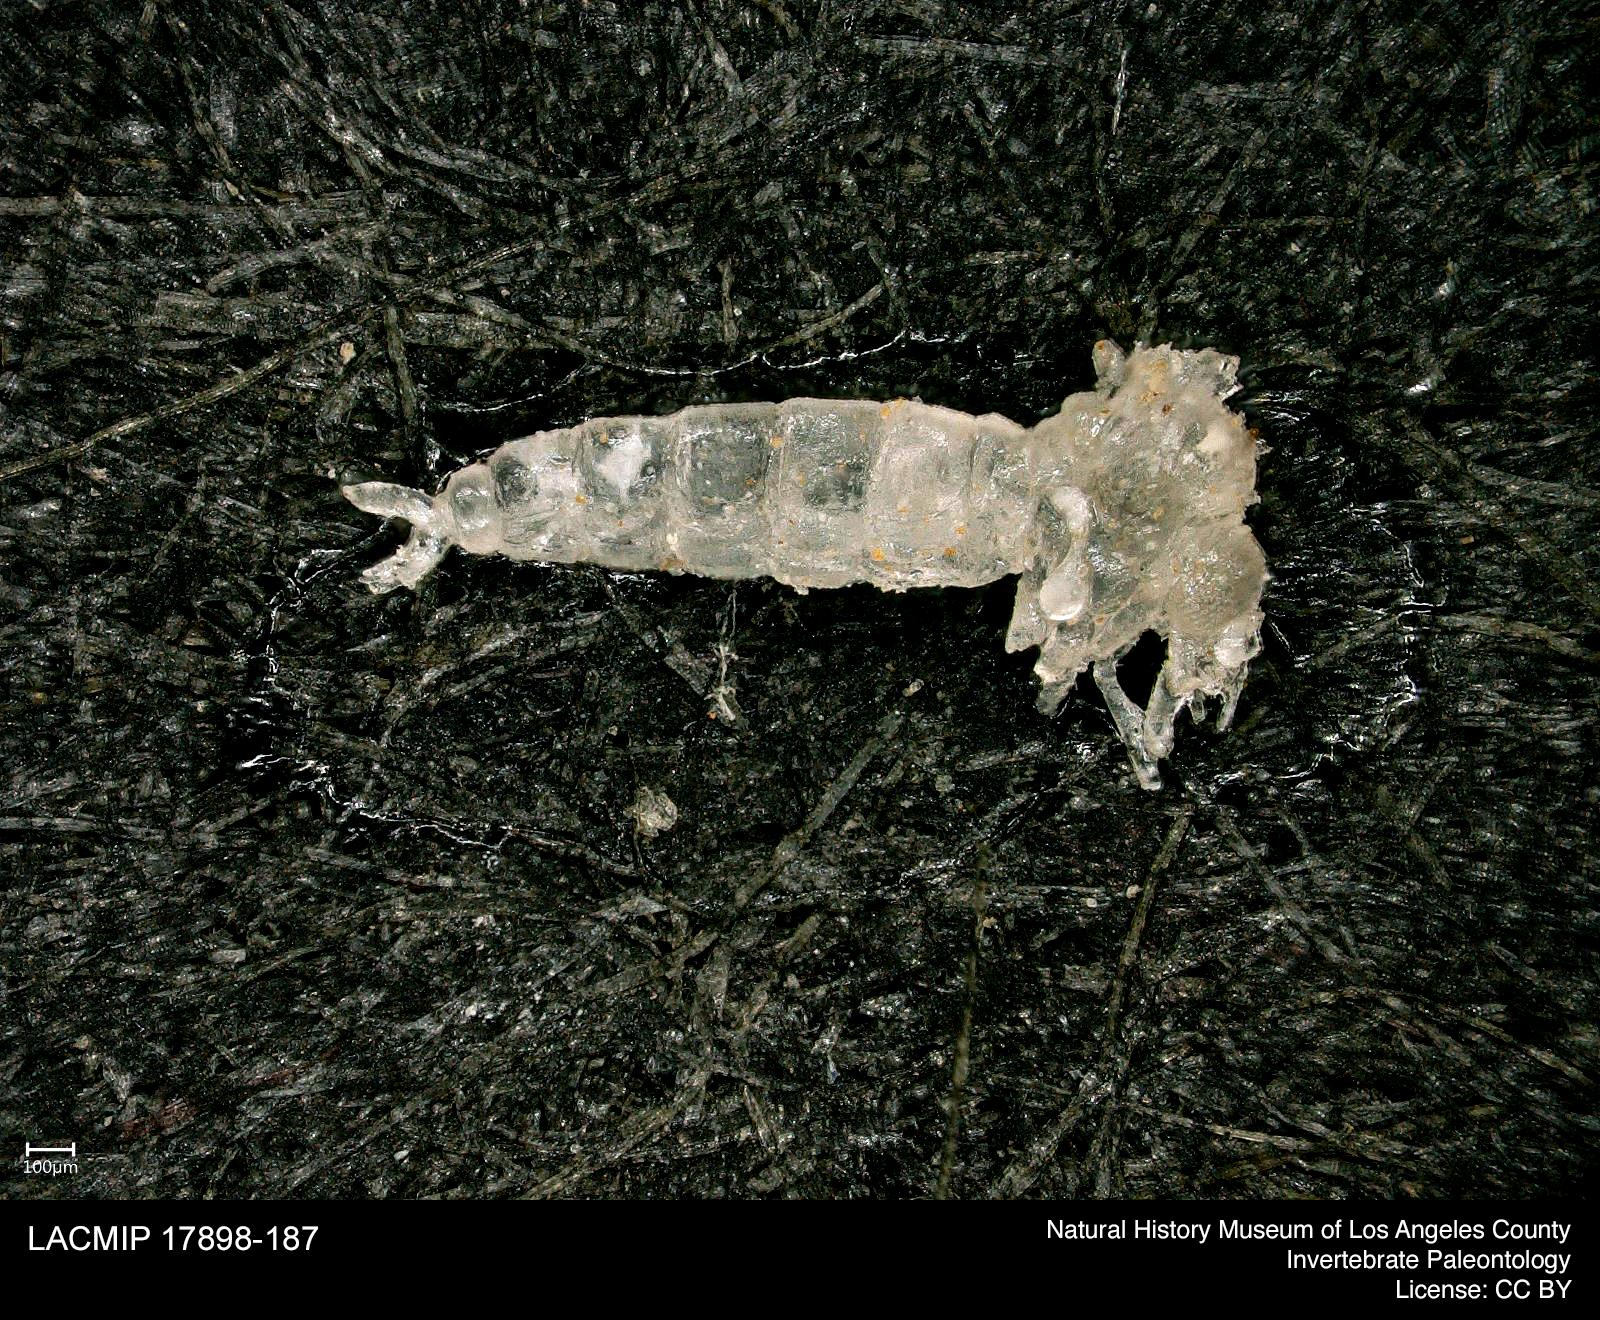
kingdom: Animalia
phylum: Arthropoda
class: Insecta
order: Diptera
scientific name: Diptera
